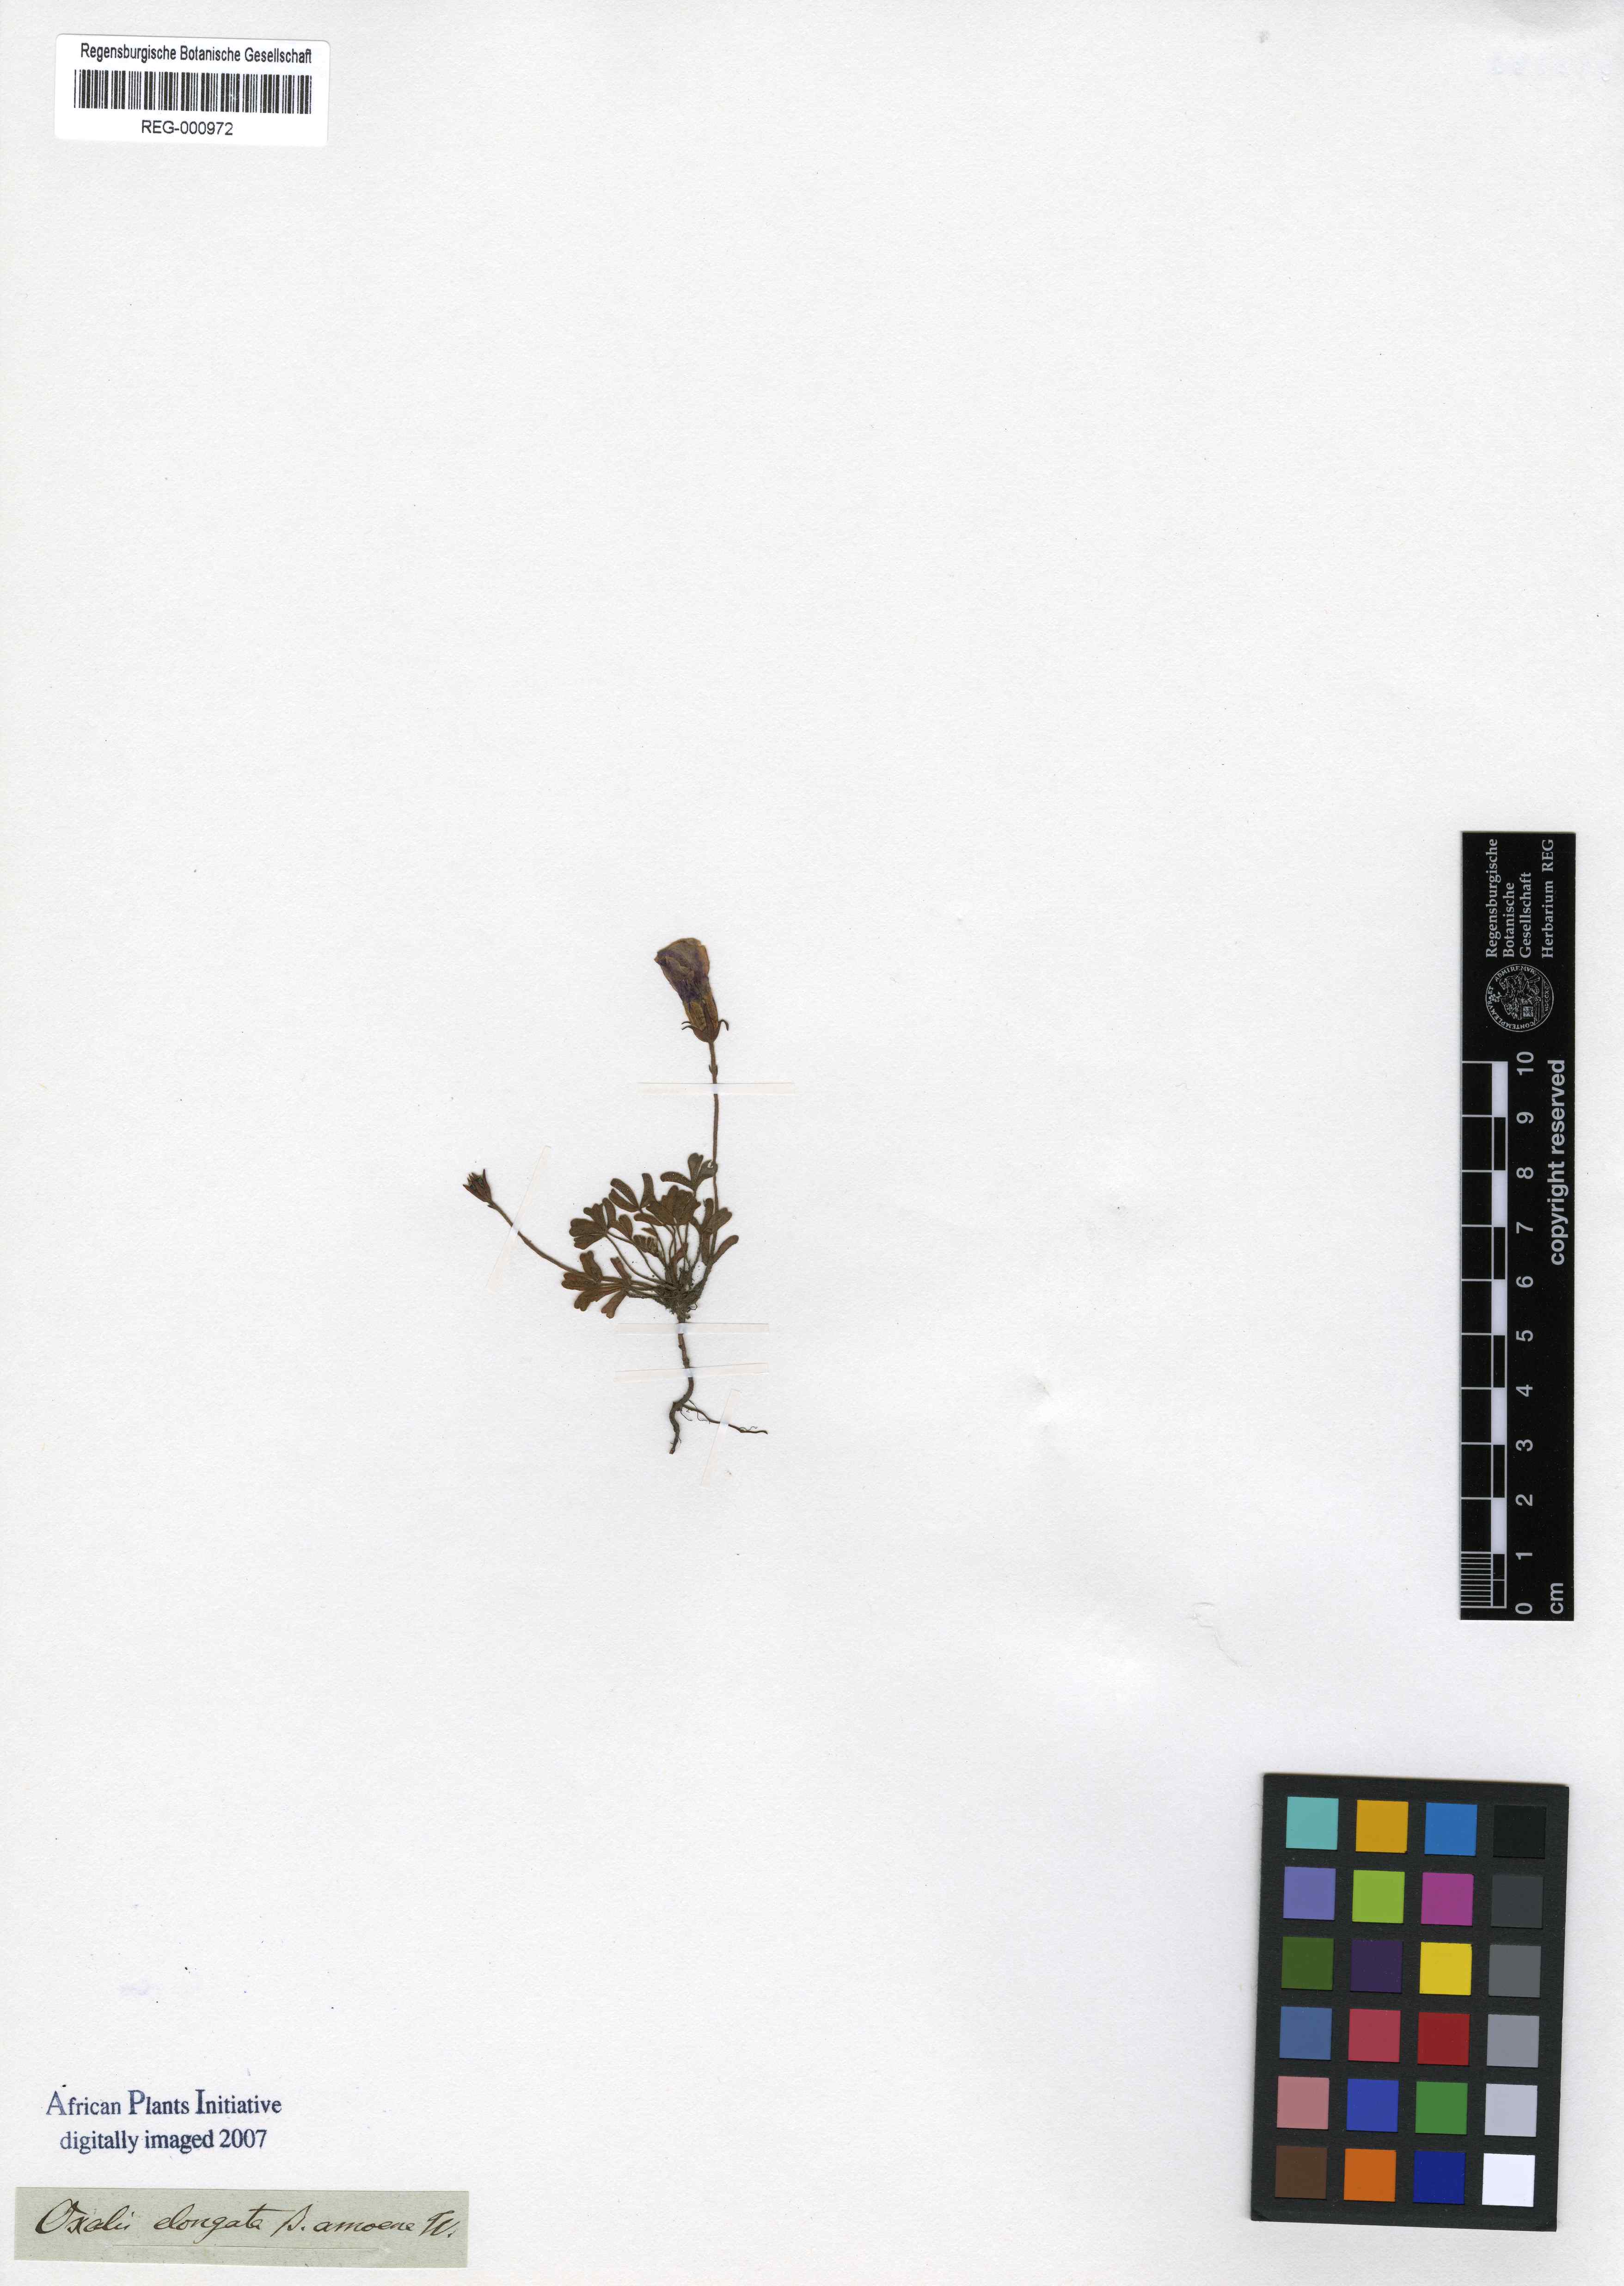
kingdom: Plantae
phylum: Tracheophyta
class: Magnoliopsida
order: Oxalidales
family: Oxalidaceae
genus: Oxalis
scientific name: Oxalis
